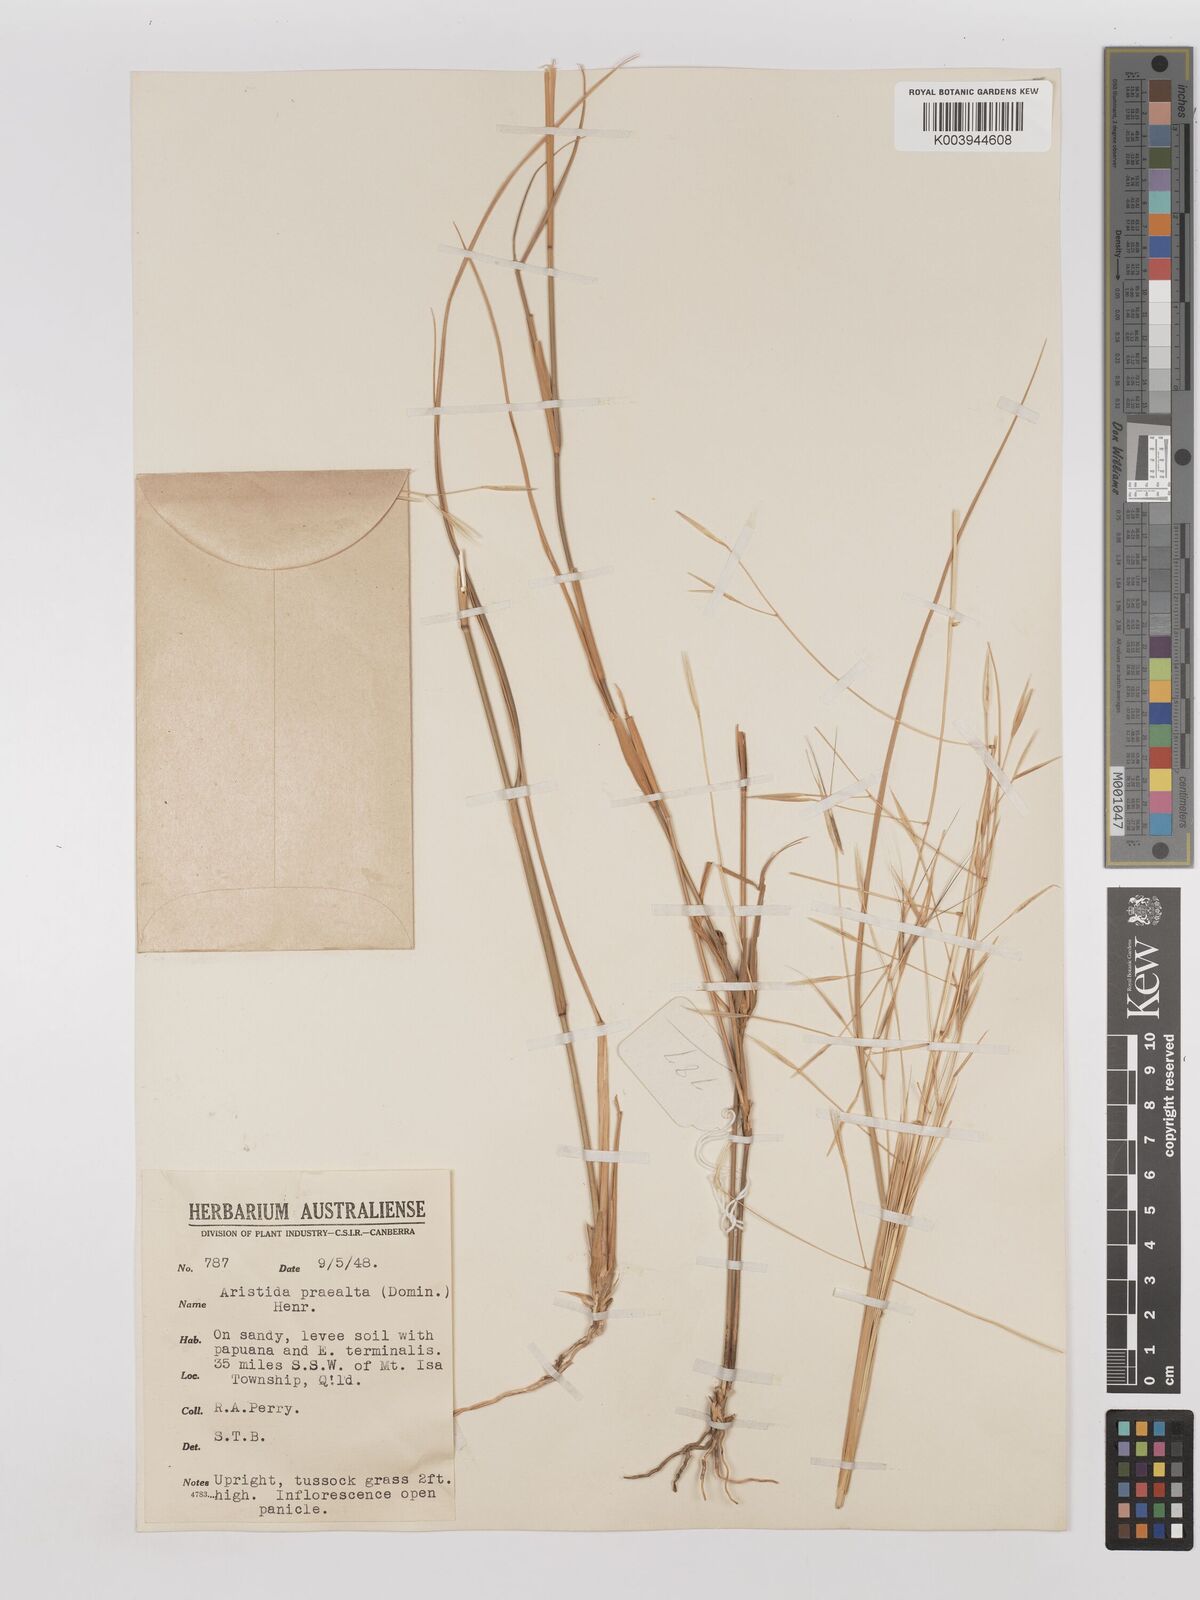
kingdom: Plantae
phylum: Tracheophyta
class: Liliopsida
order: Poales
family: Poaceae
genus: Aristida
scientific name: Aristida calycina
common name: Dark wire grass
